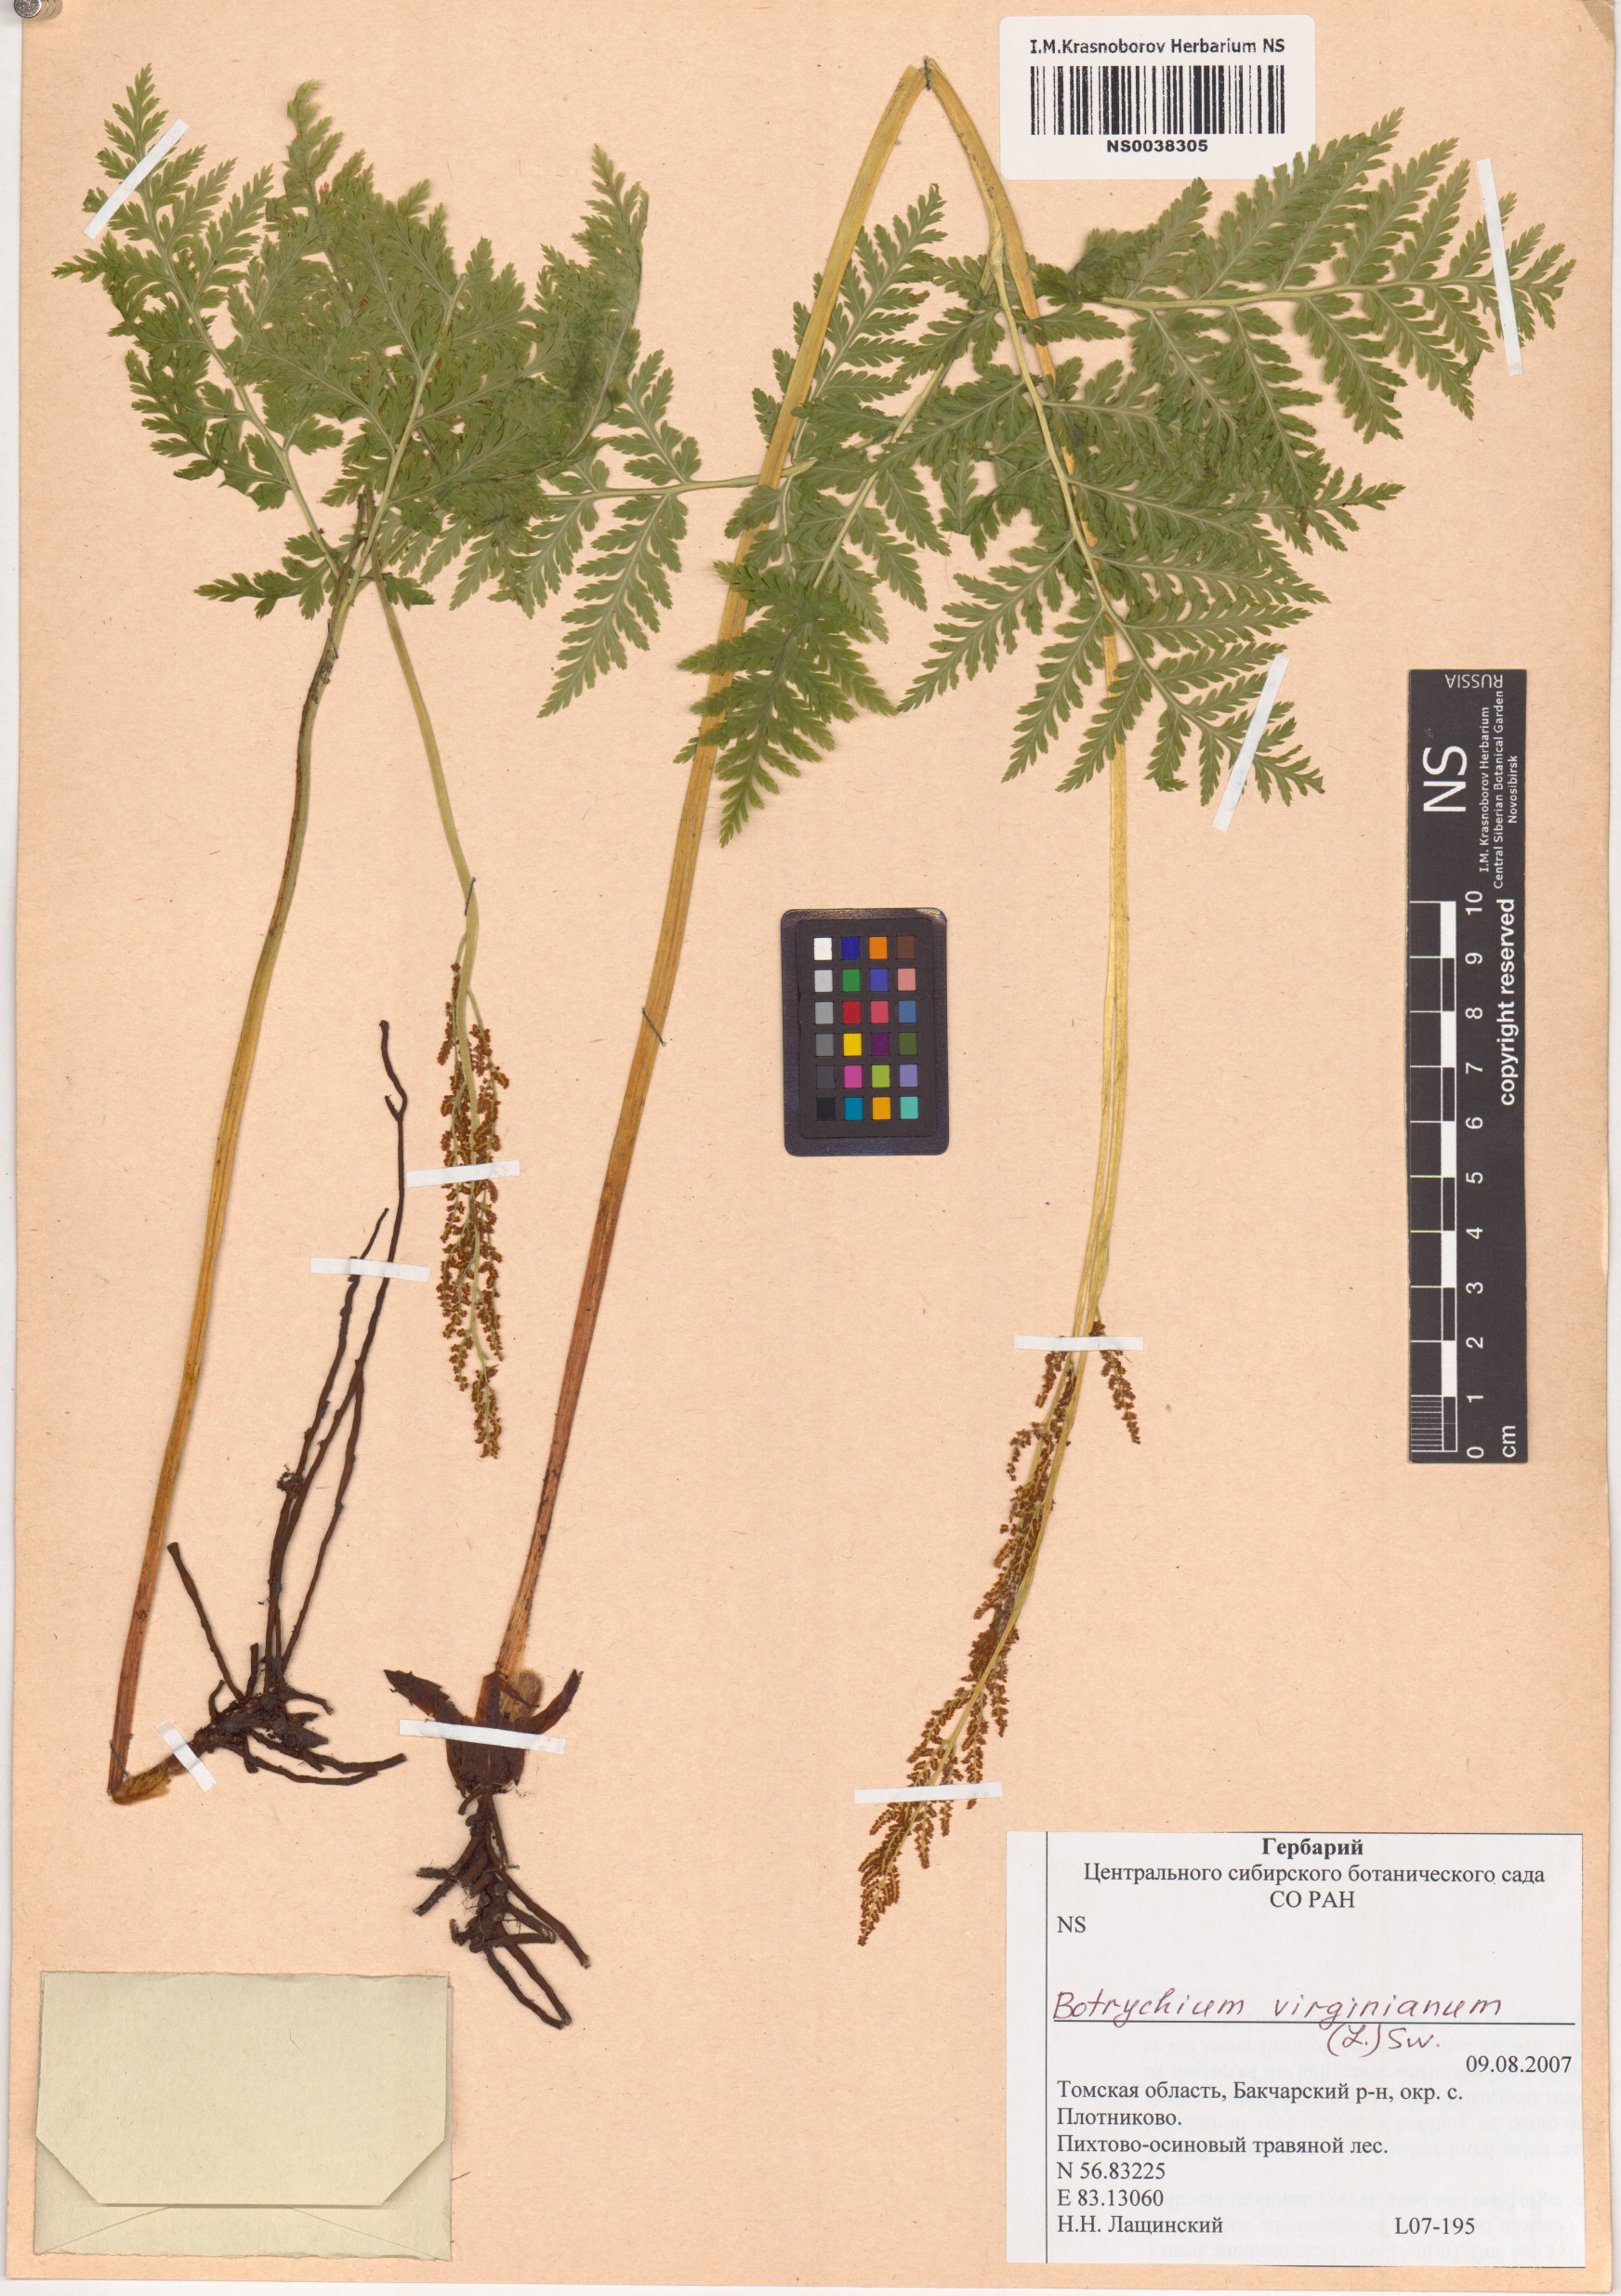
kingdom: Plantae
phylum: Tracheophyta
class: Polypodiopsida
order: Ophioglossales
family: Ophioglossaceae
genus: Botrypus
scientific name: Botrypus virginianus
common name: Common grapefern
